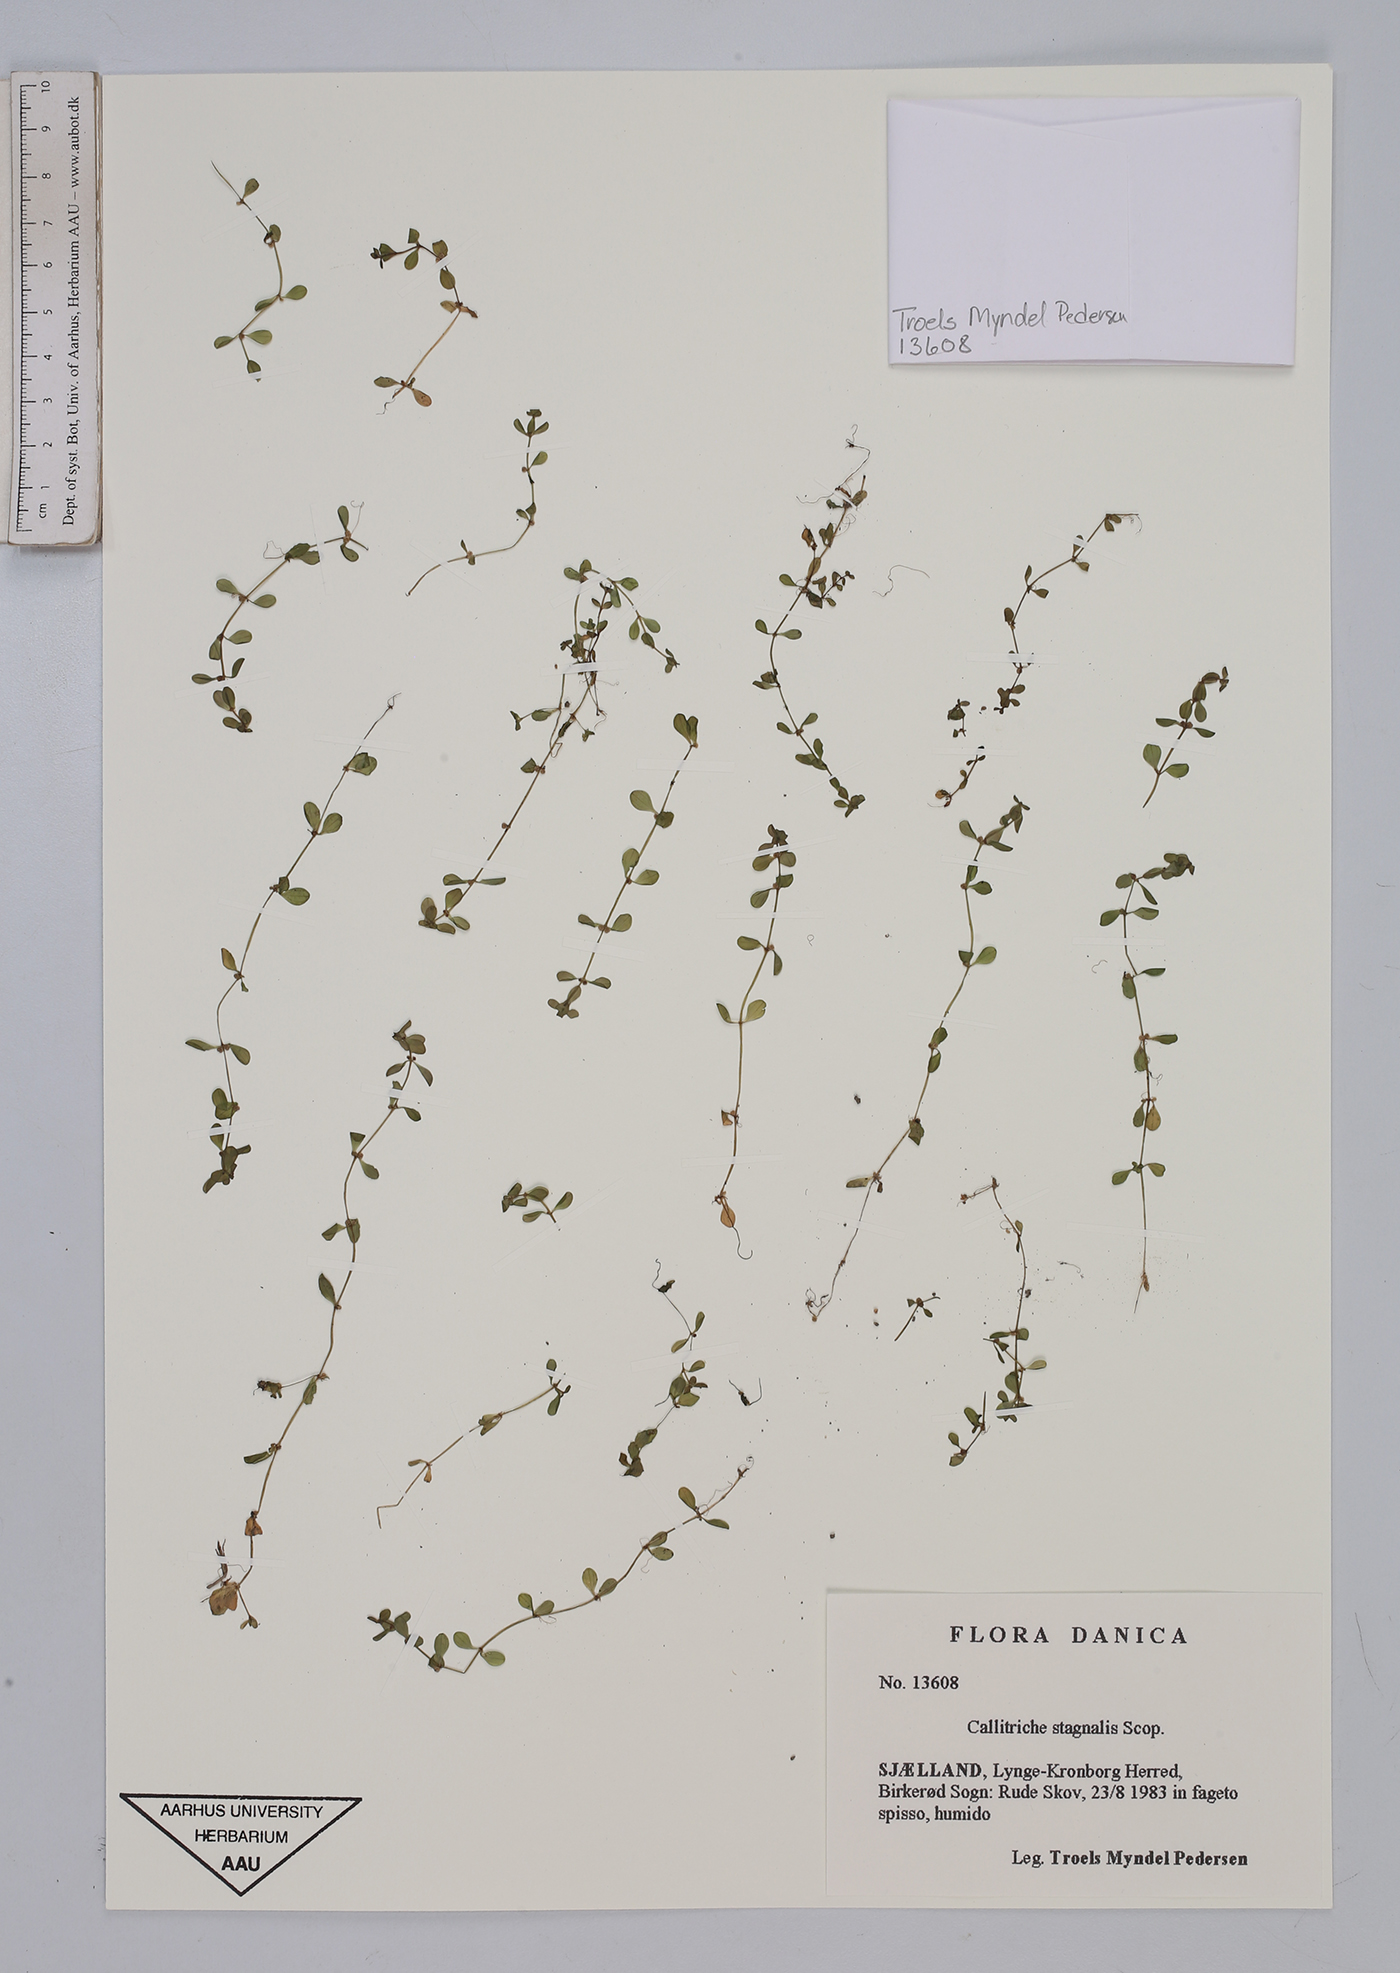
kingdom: Plantae
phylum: Tracheophyta
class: Magnoliopsida
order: Lamiales
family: Plantaginaceae
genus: Callitriche
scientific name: Callitriche stagnalis
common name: Common water-starwort
